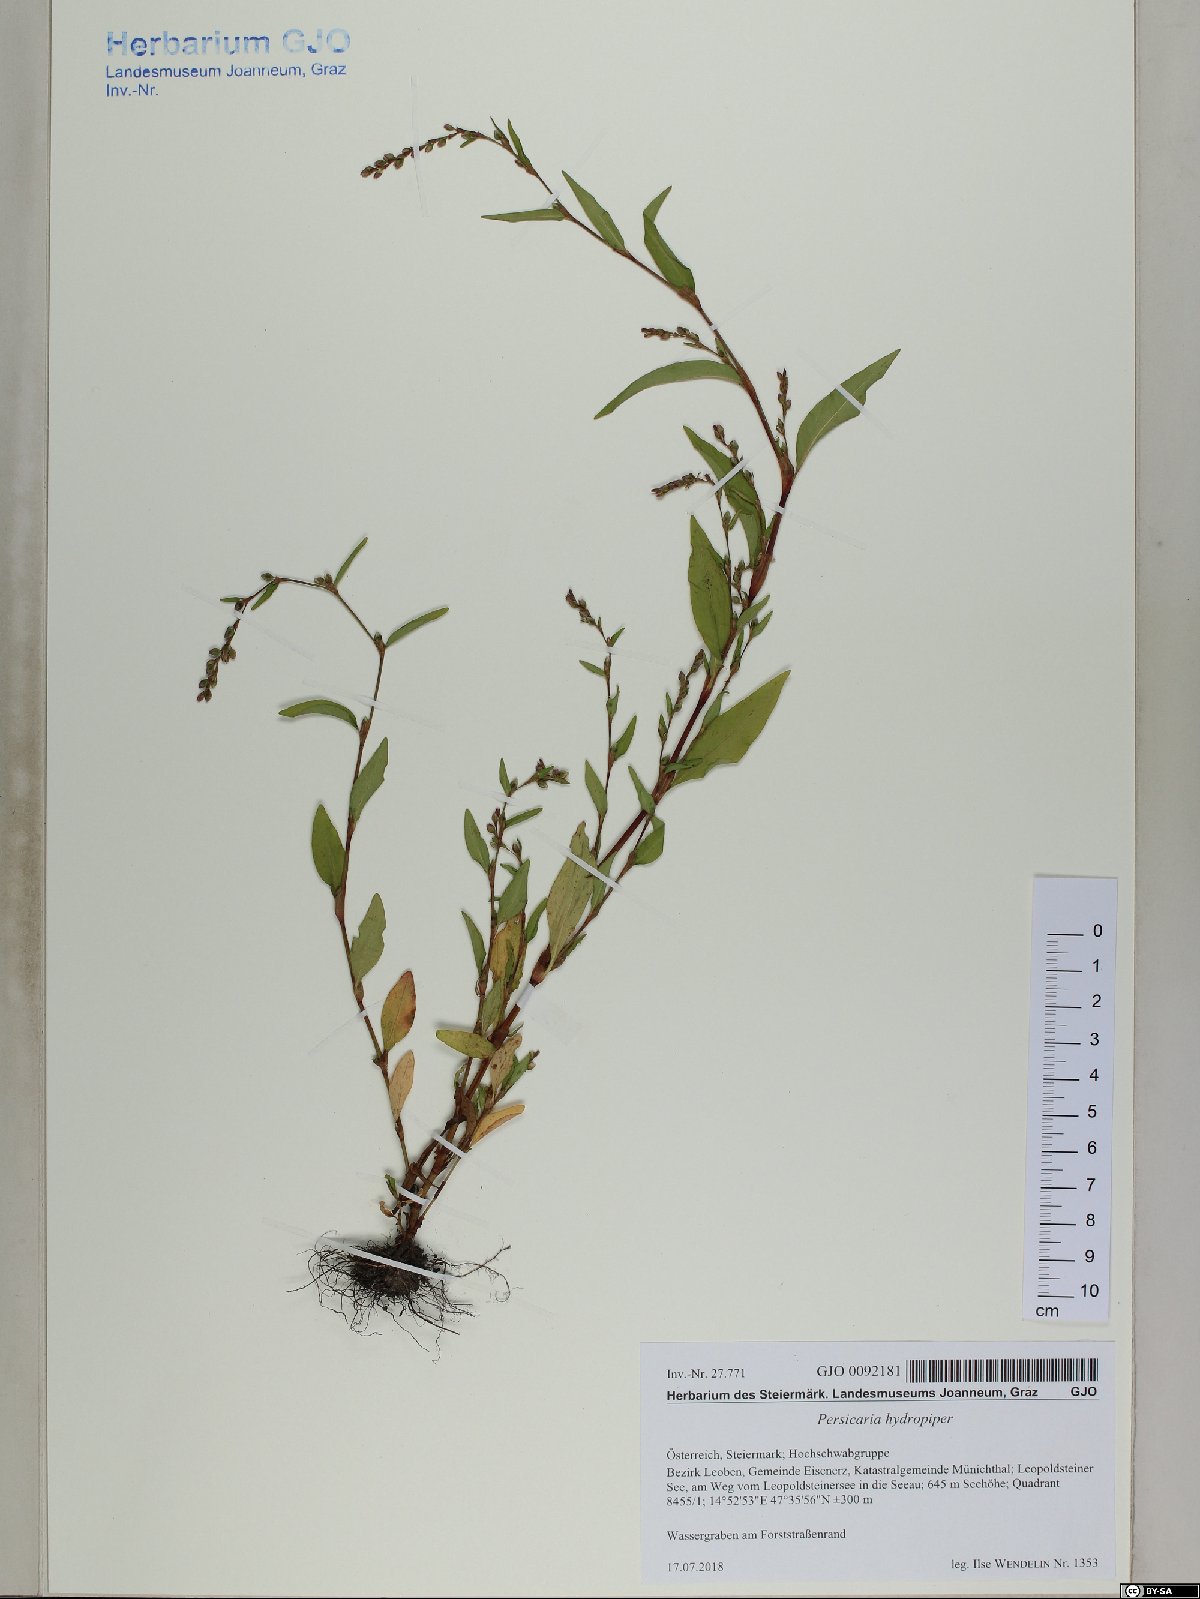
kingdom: Plantae
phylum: Tracheophyta
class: Magnoliopsida
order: Caryophyllales
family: Polygonaceae
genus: Persicaria
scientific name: Persicaria hydropiper
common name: Water-pepper
